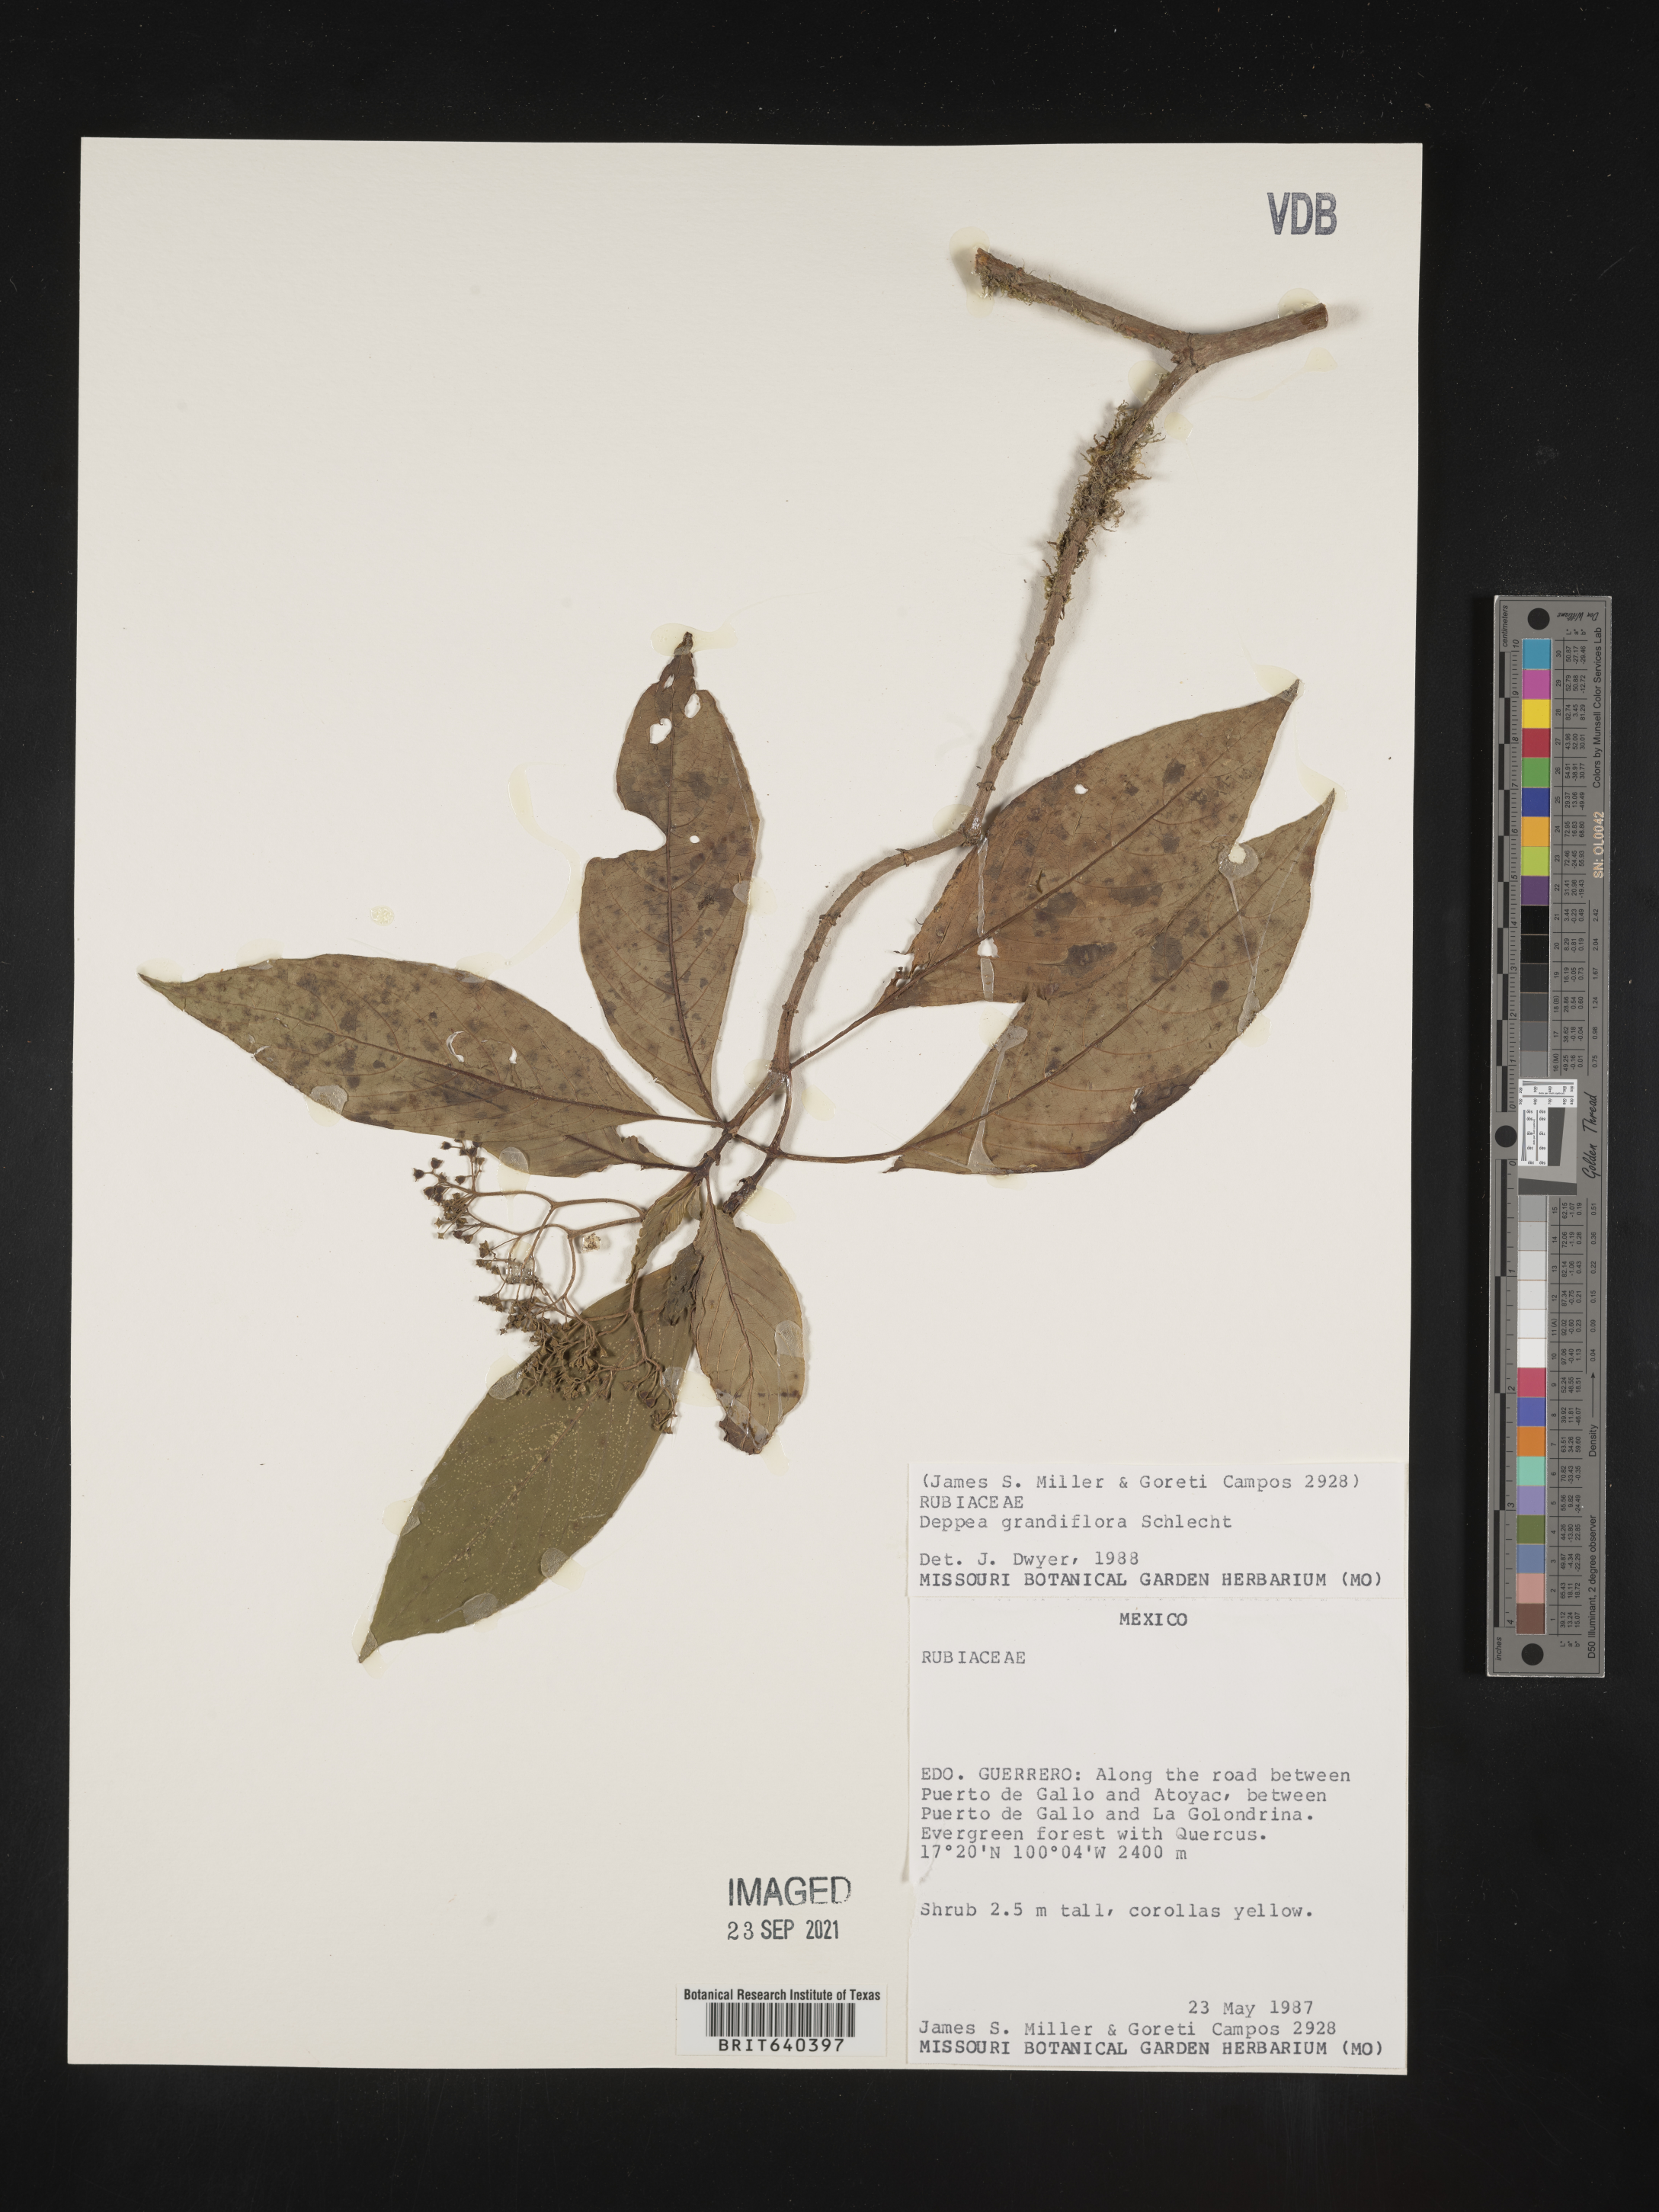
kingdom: Plantae
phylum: Tracheophyta
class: Magnoliopsida
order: Gentianales
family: Rubiaceae
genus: Deppea
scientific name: Deppea
